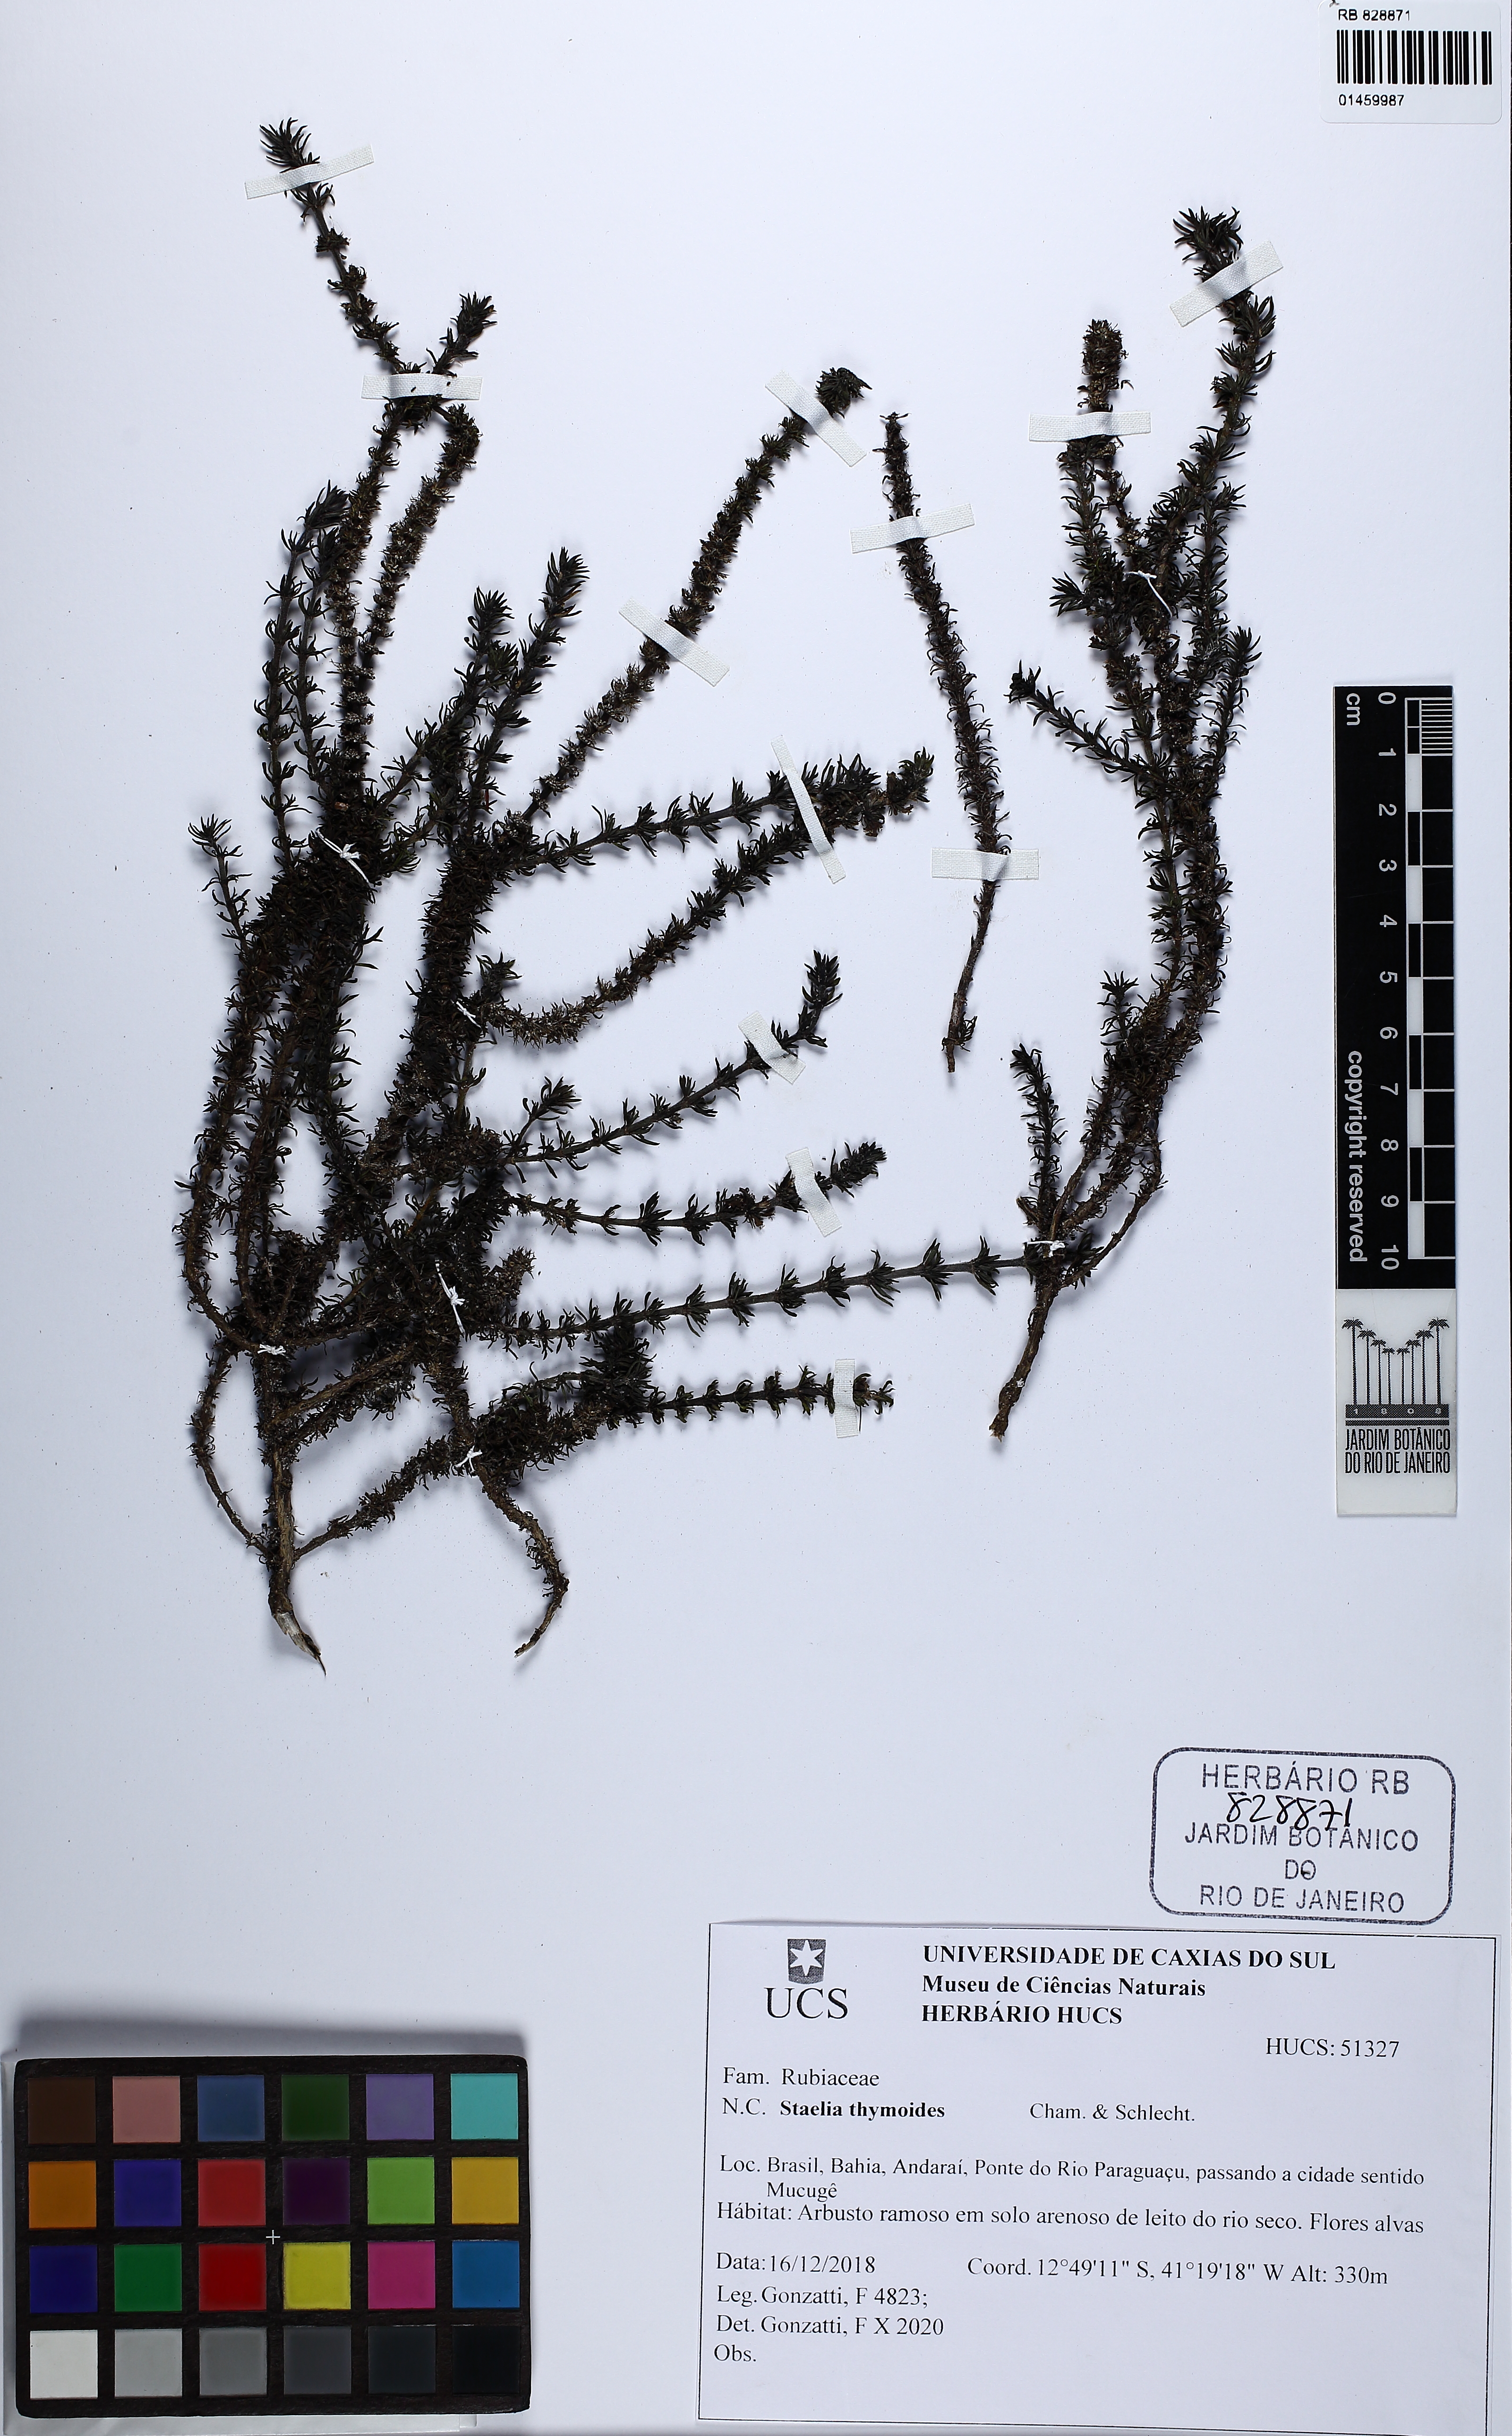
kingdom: Plantae
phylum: Tracheophyta
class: Magnoliopsida
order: Gentianales
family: Rubiaceae
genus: Staelia
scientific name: Staelia thymoides
